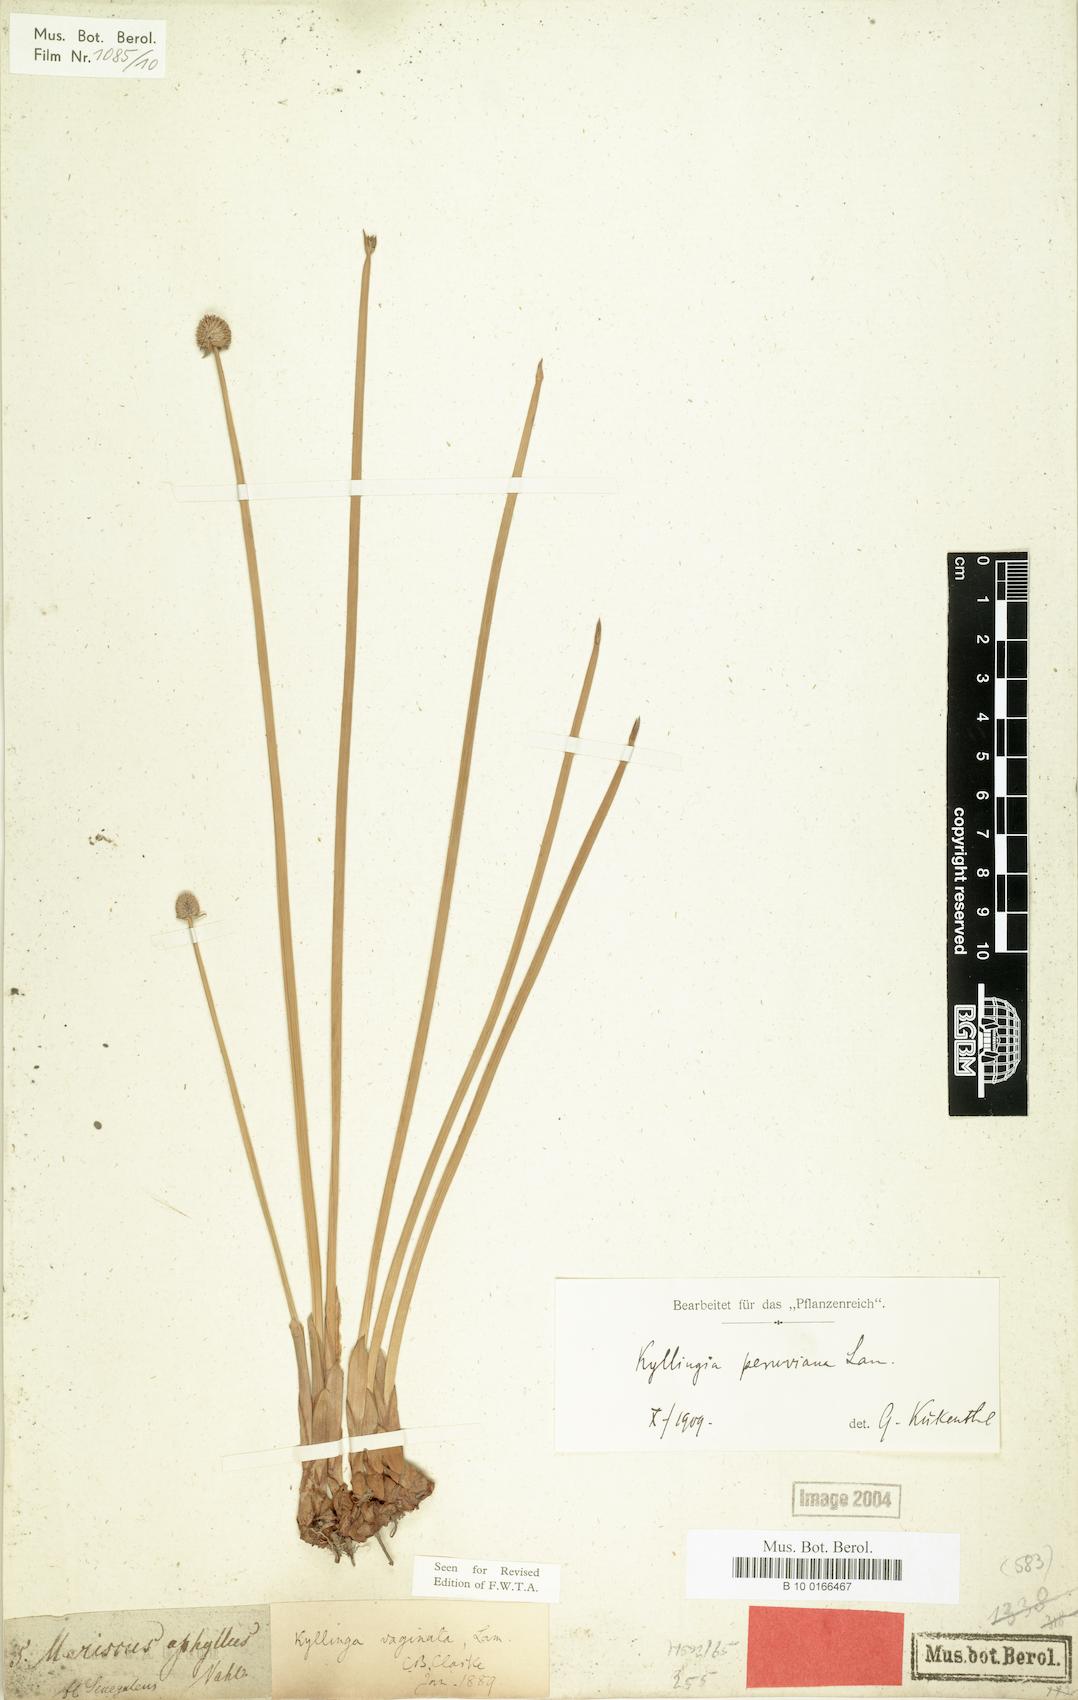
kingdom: Plantae
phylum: Tracheophyta
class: Liliopsida
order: Poales
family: Cyperaceae
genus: Cyperus
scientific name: Cyperus obtusatus
